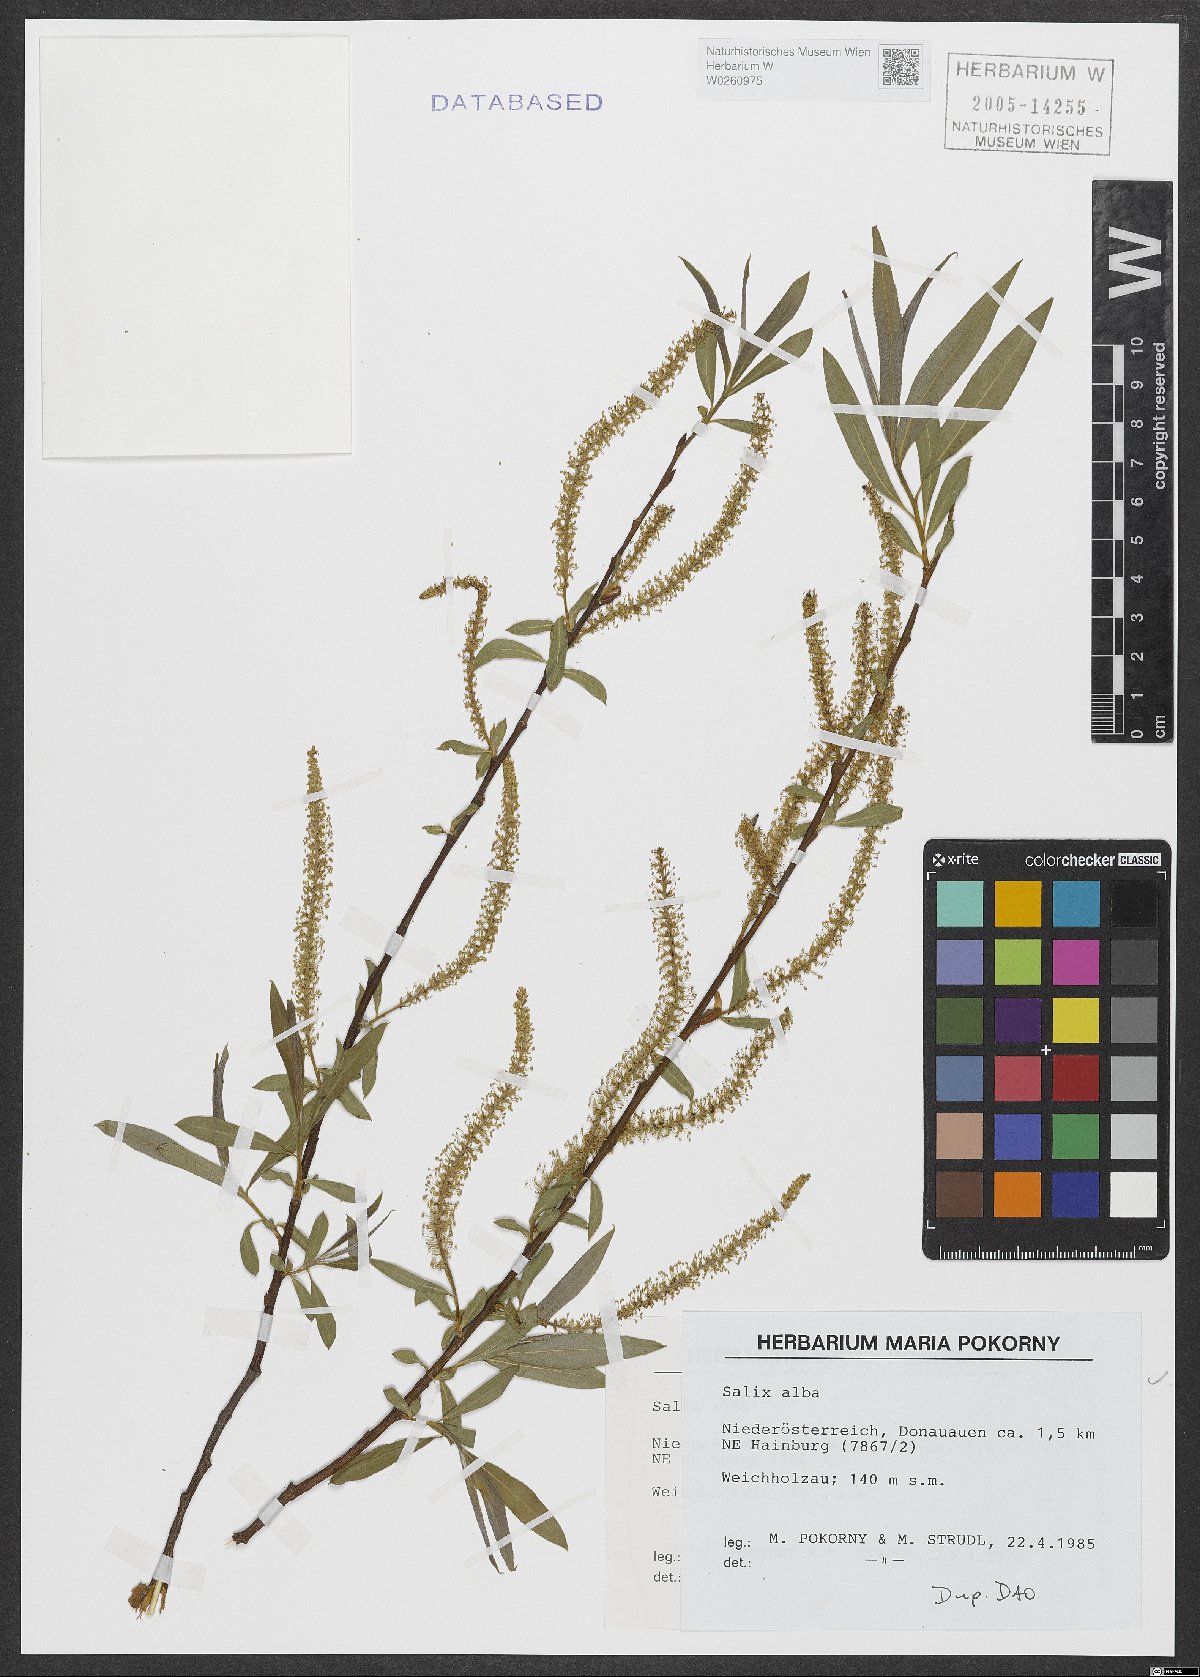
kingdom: Plantae
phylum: Tracheophyta
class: Magnoliopsida
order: Malpighiales
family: Salicaceae
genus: Salix
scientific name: Salix alba
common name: White willow
